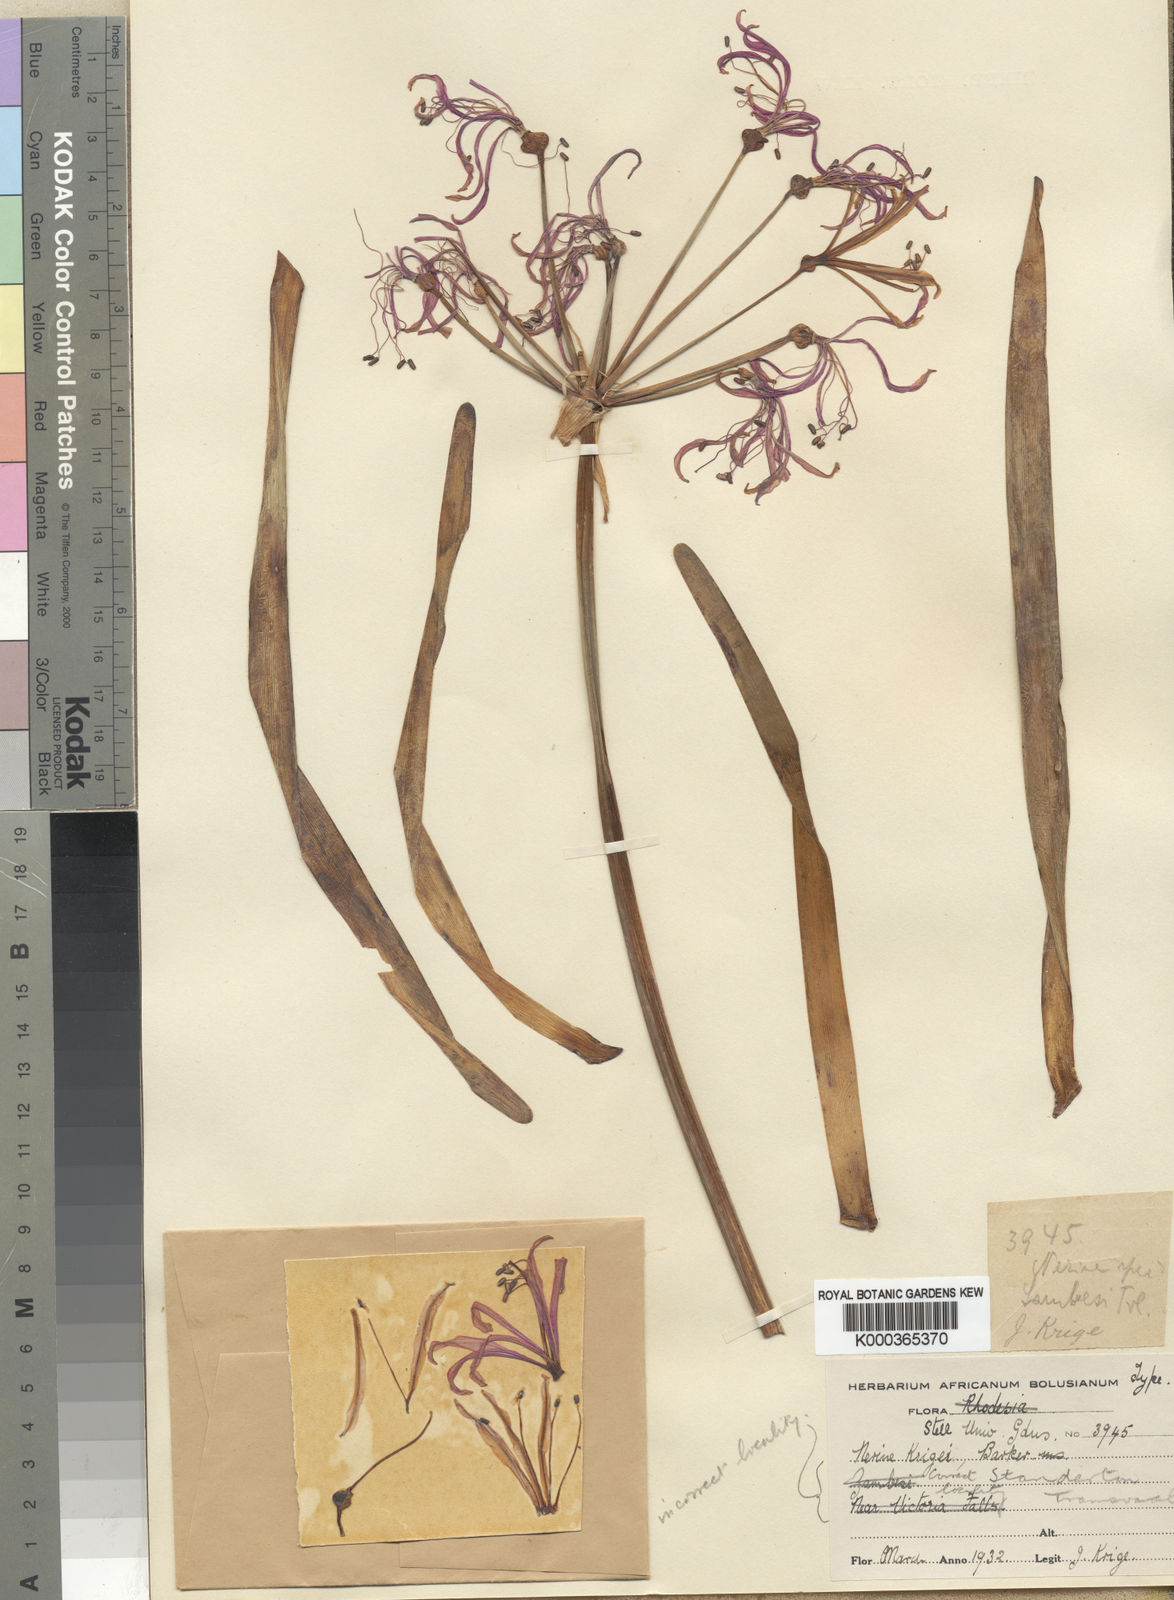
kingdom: Plantae
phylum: Tracheophyta
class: Liliopsida
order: Asparagales
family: Amaryllidaceae
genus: Nerine
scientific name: Nerine krigei
